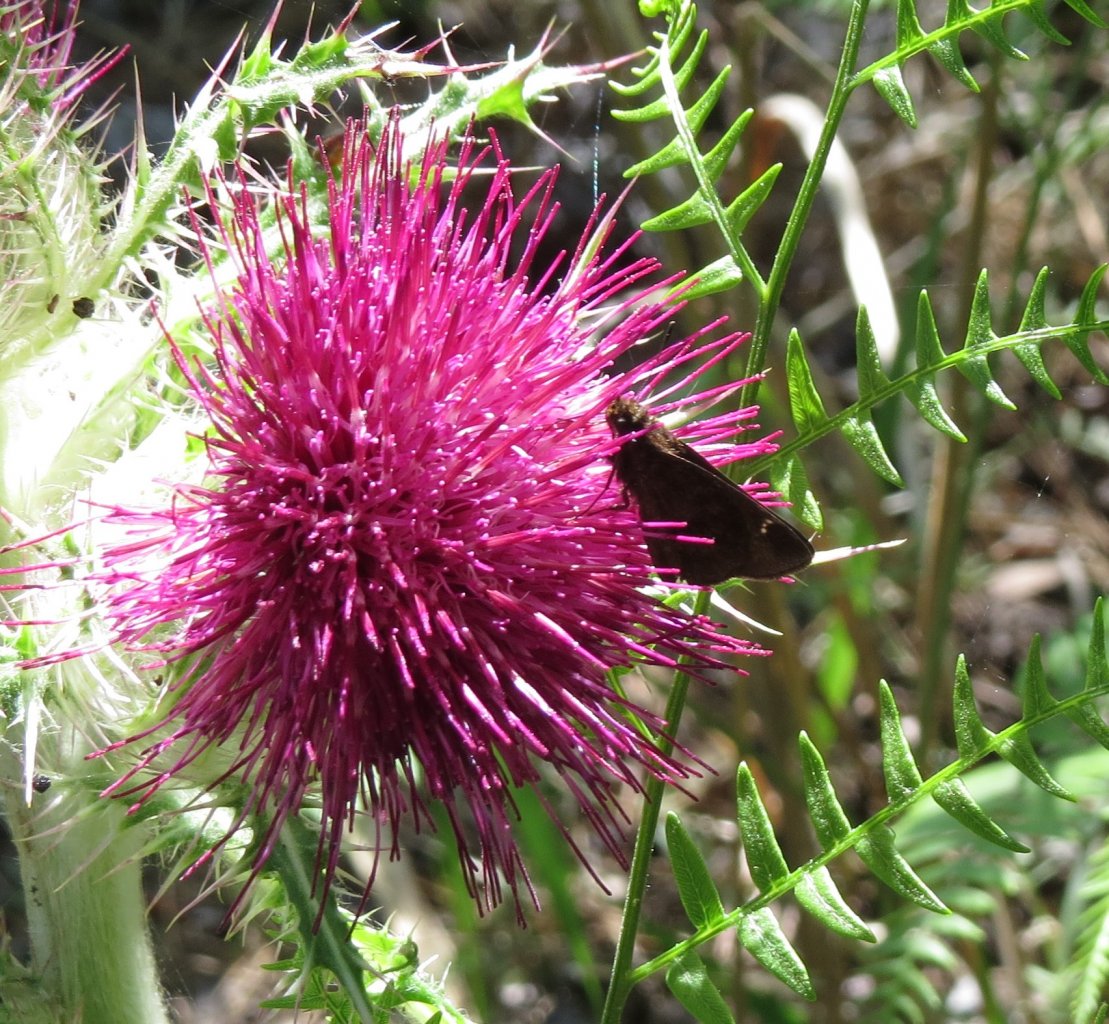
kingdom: Animalia
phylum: Arthropoda
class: Insecta
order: Lepidoptera
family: Hesperiidae
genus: Lerema
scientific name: Lerema accius
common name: Clouded Skipper
